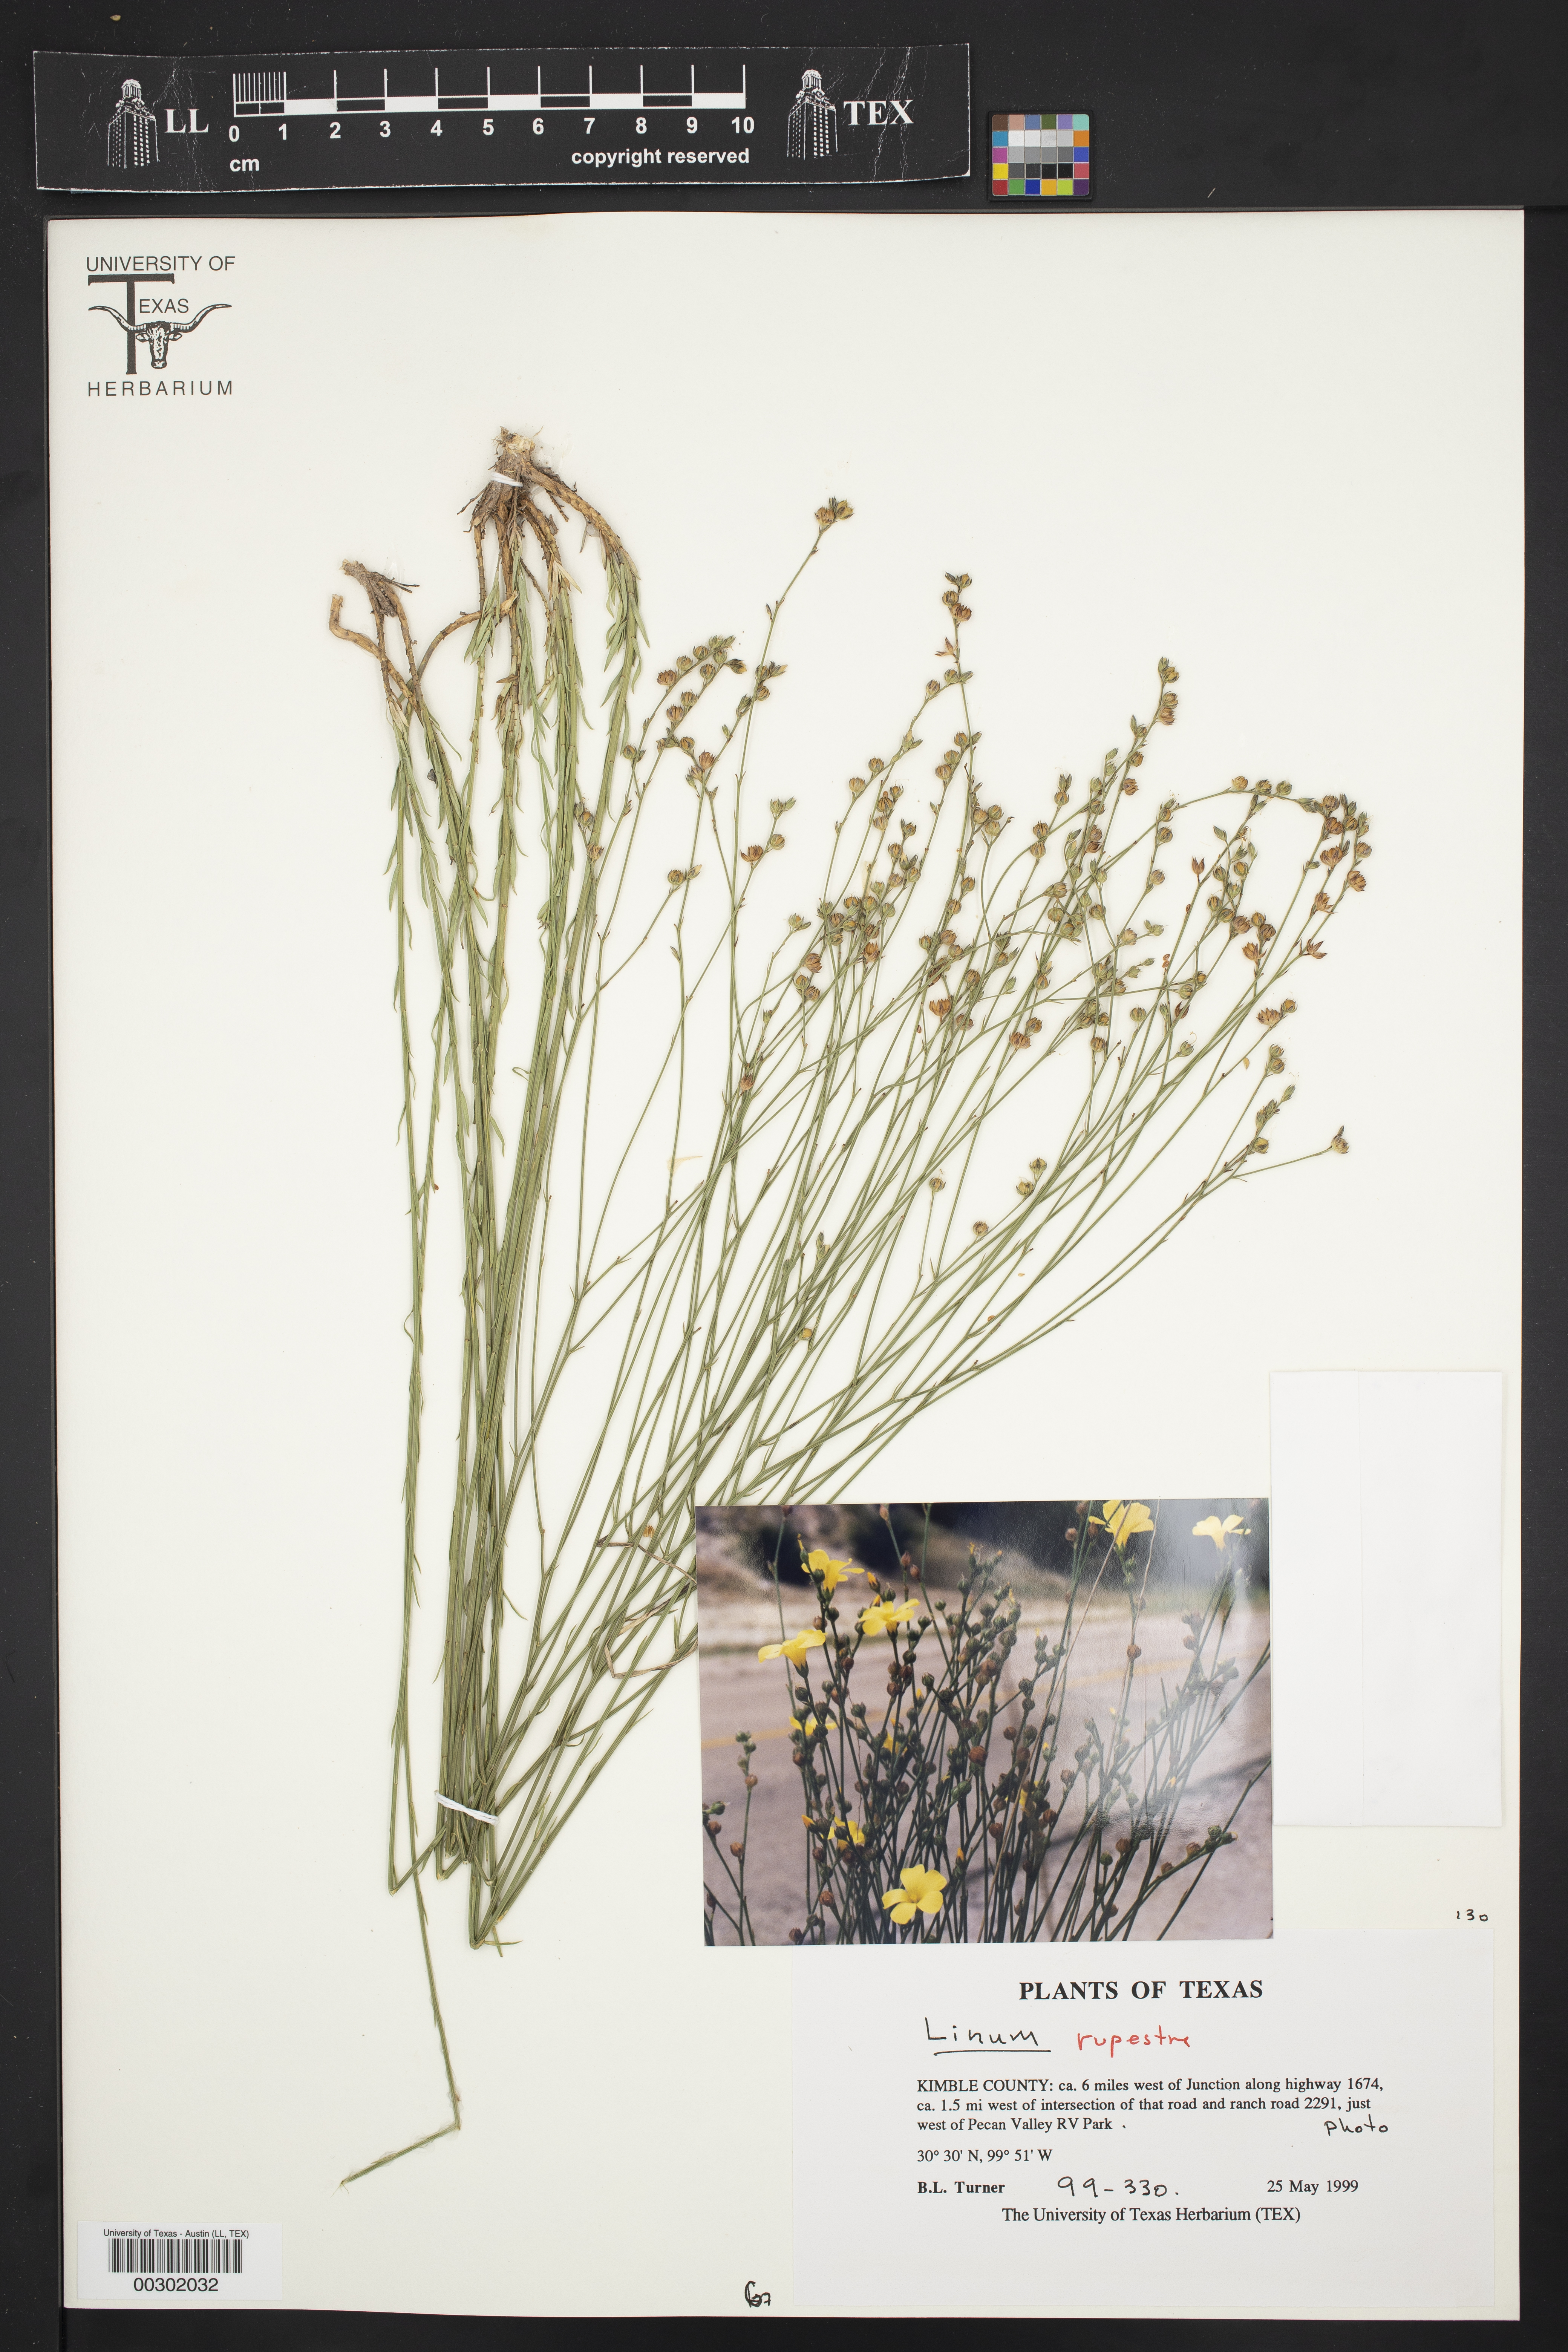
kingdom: Plantae
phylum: Tracheophyta
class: Magnoliopsida
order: Malpighiales
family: Linaceae
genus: Linum
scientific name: Linum rupestre
